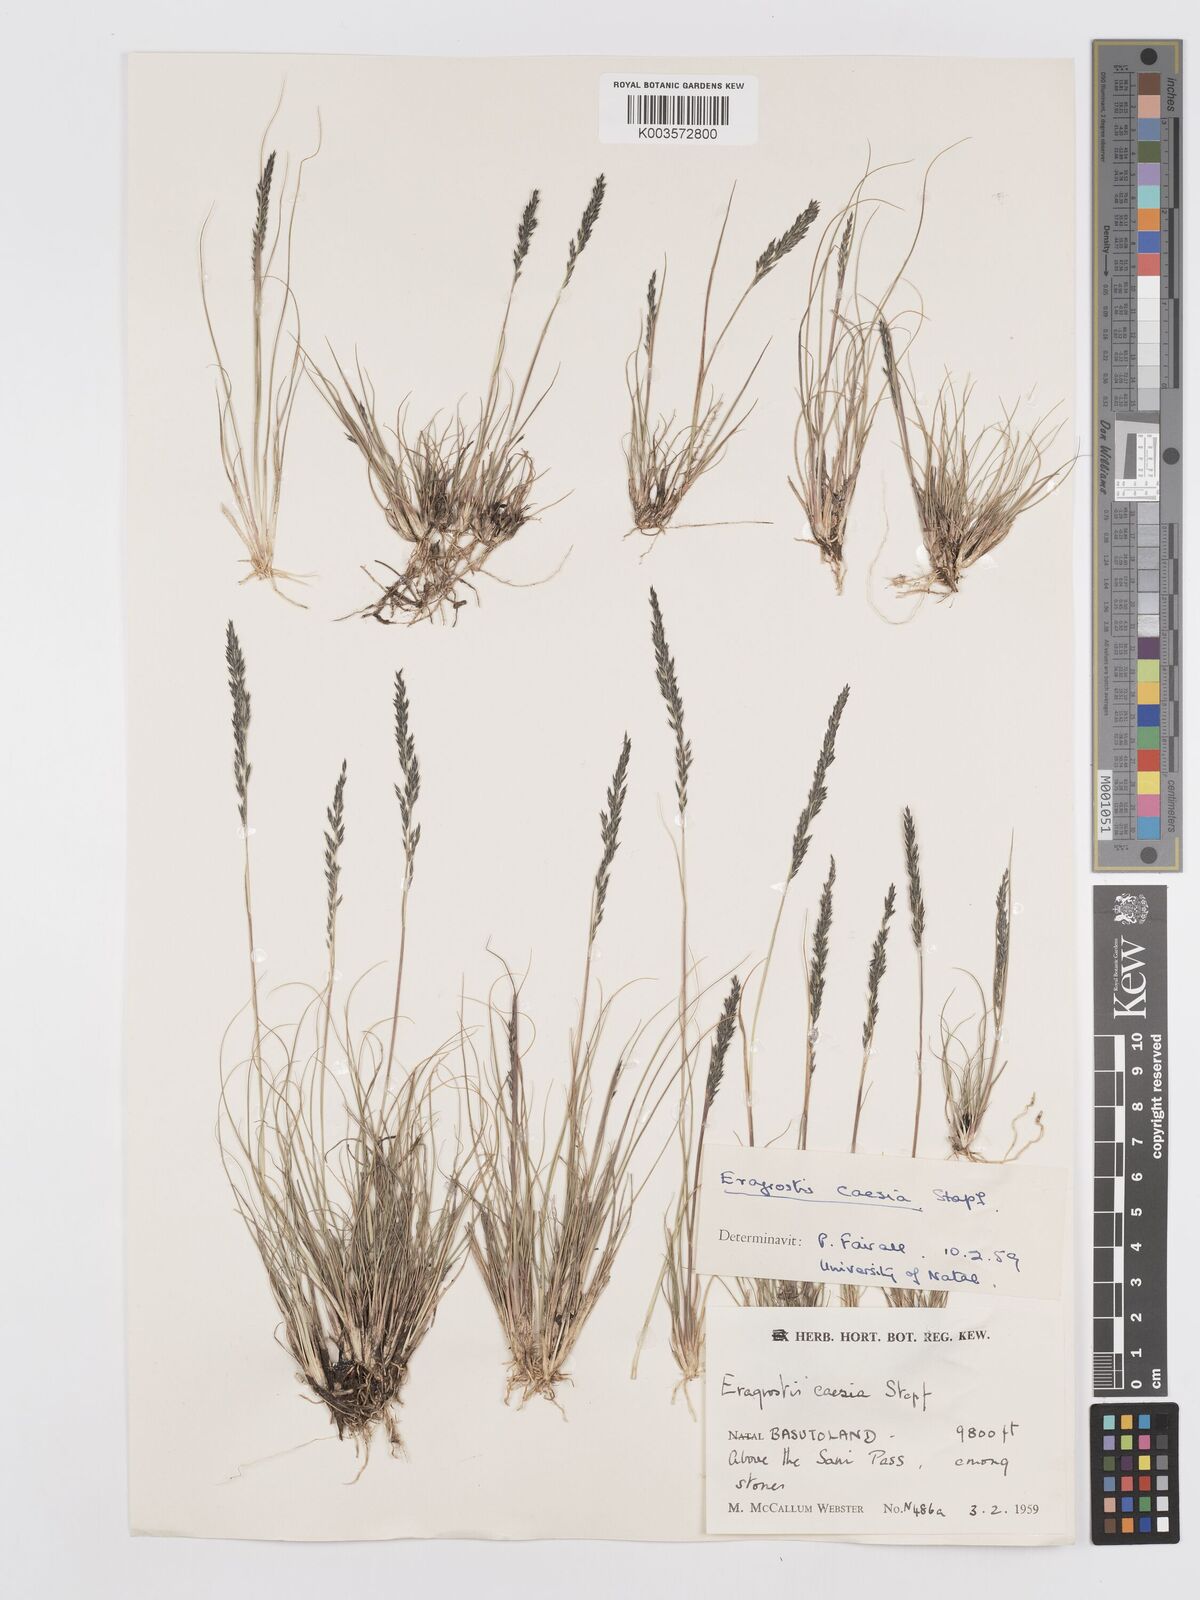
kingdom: Plantae
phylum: Tracheophyta
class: Liliopsida
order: Poales
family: Poaceae
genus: Eragrostis
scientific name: Eragrostis caesia
